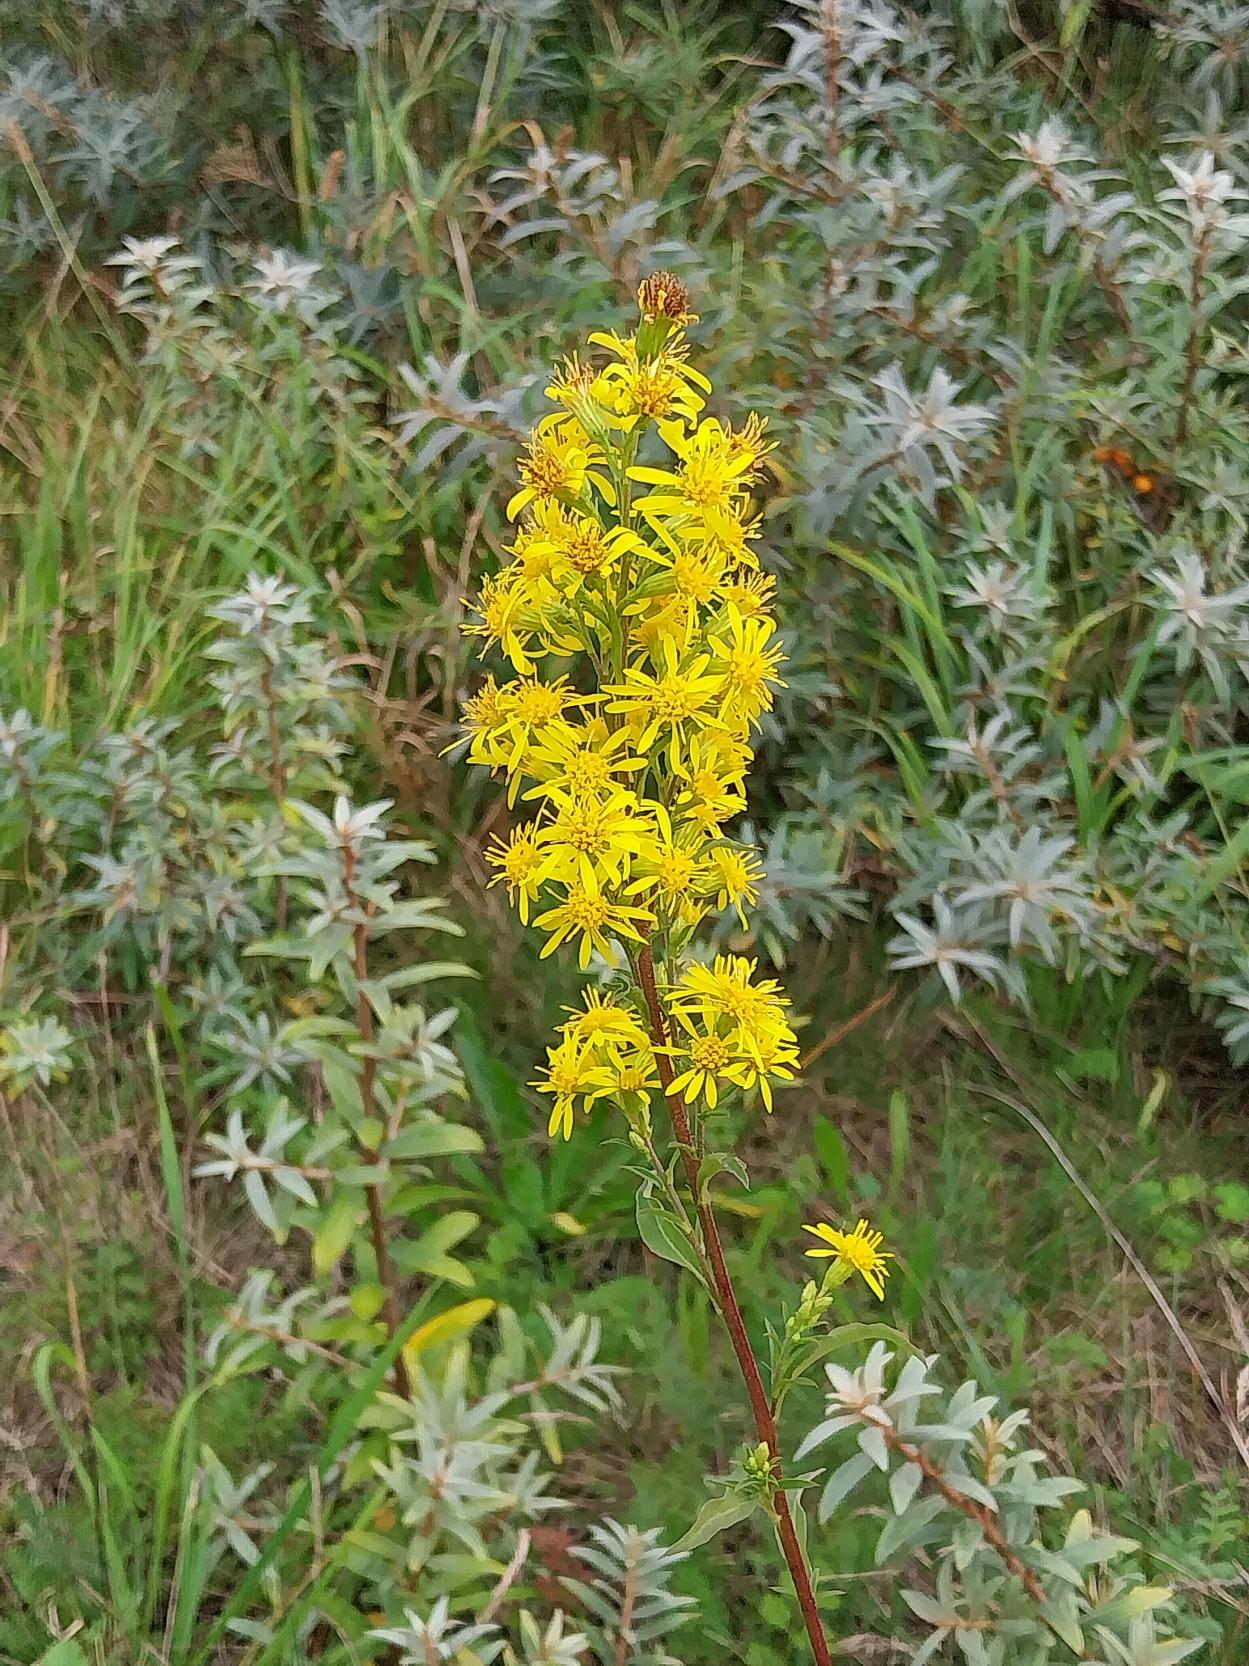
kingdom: Plantae
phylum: Tracheophyta
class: Magnoliopsida
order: Asterales
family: Asteraceae
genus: Solidago
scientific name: Solidago virgaurea
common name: Almindelig gyldenris
